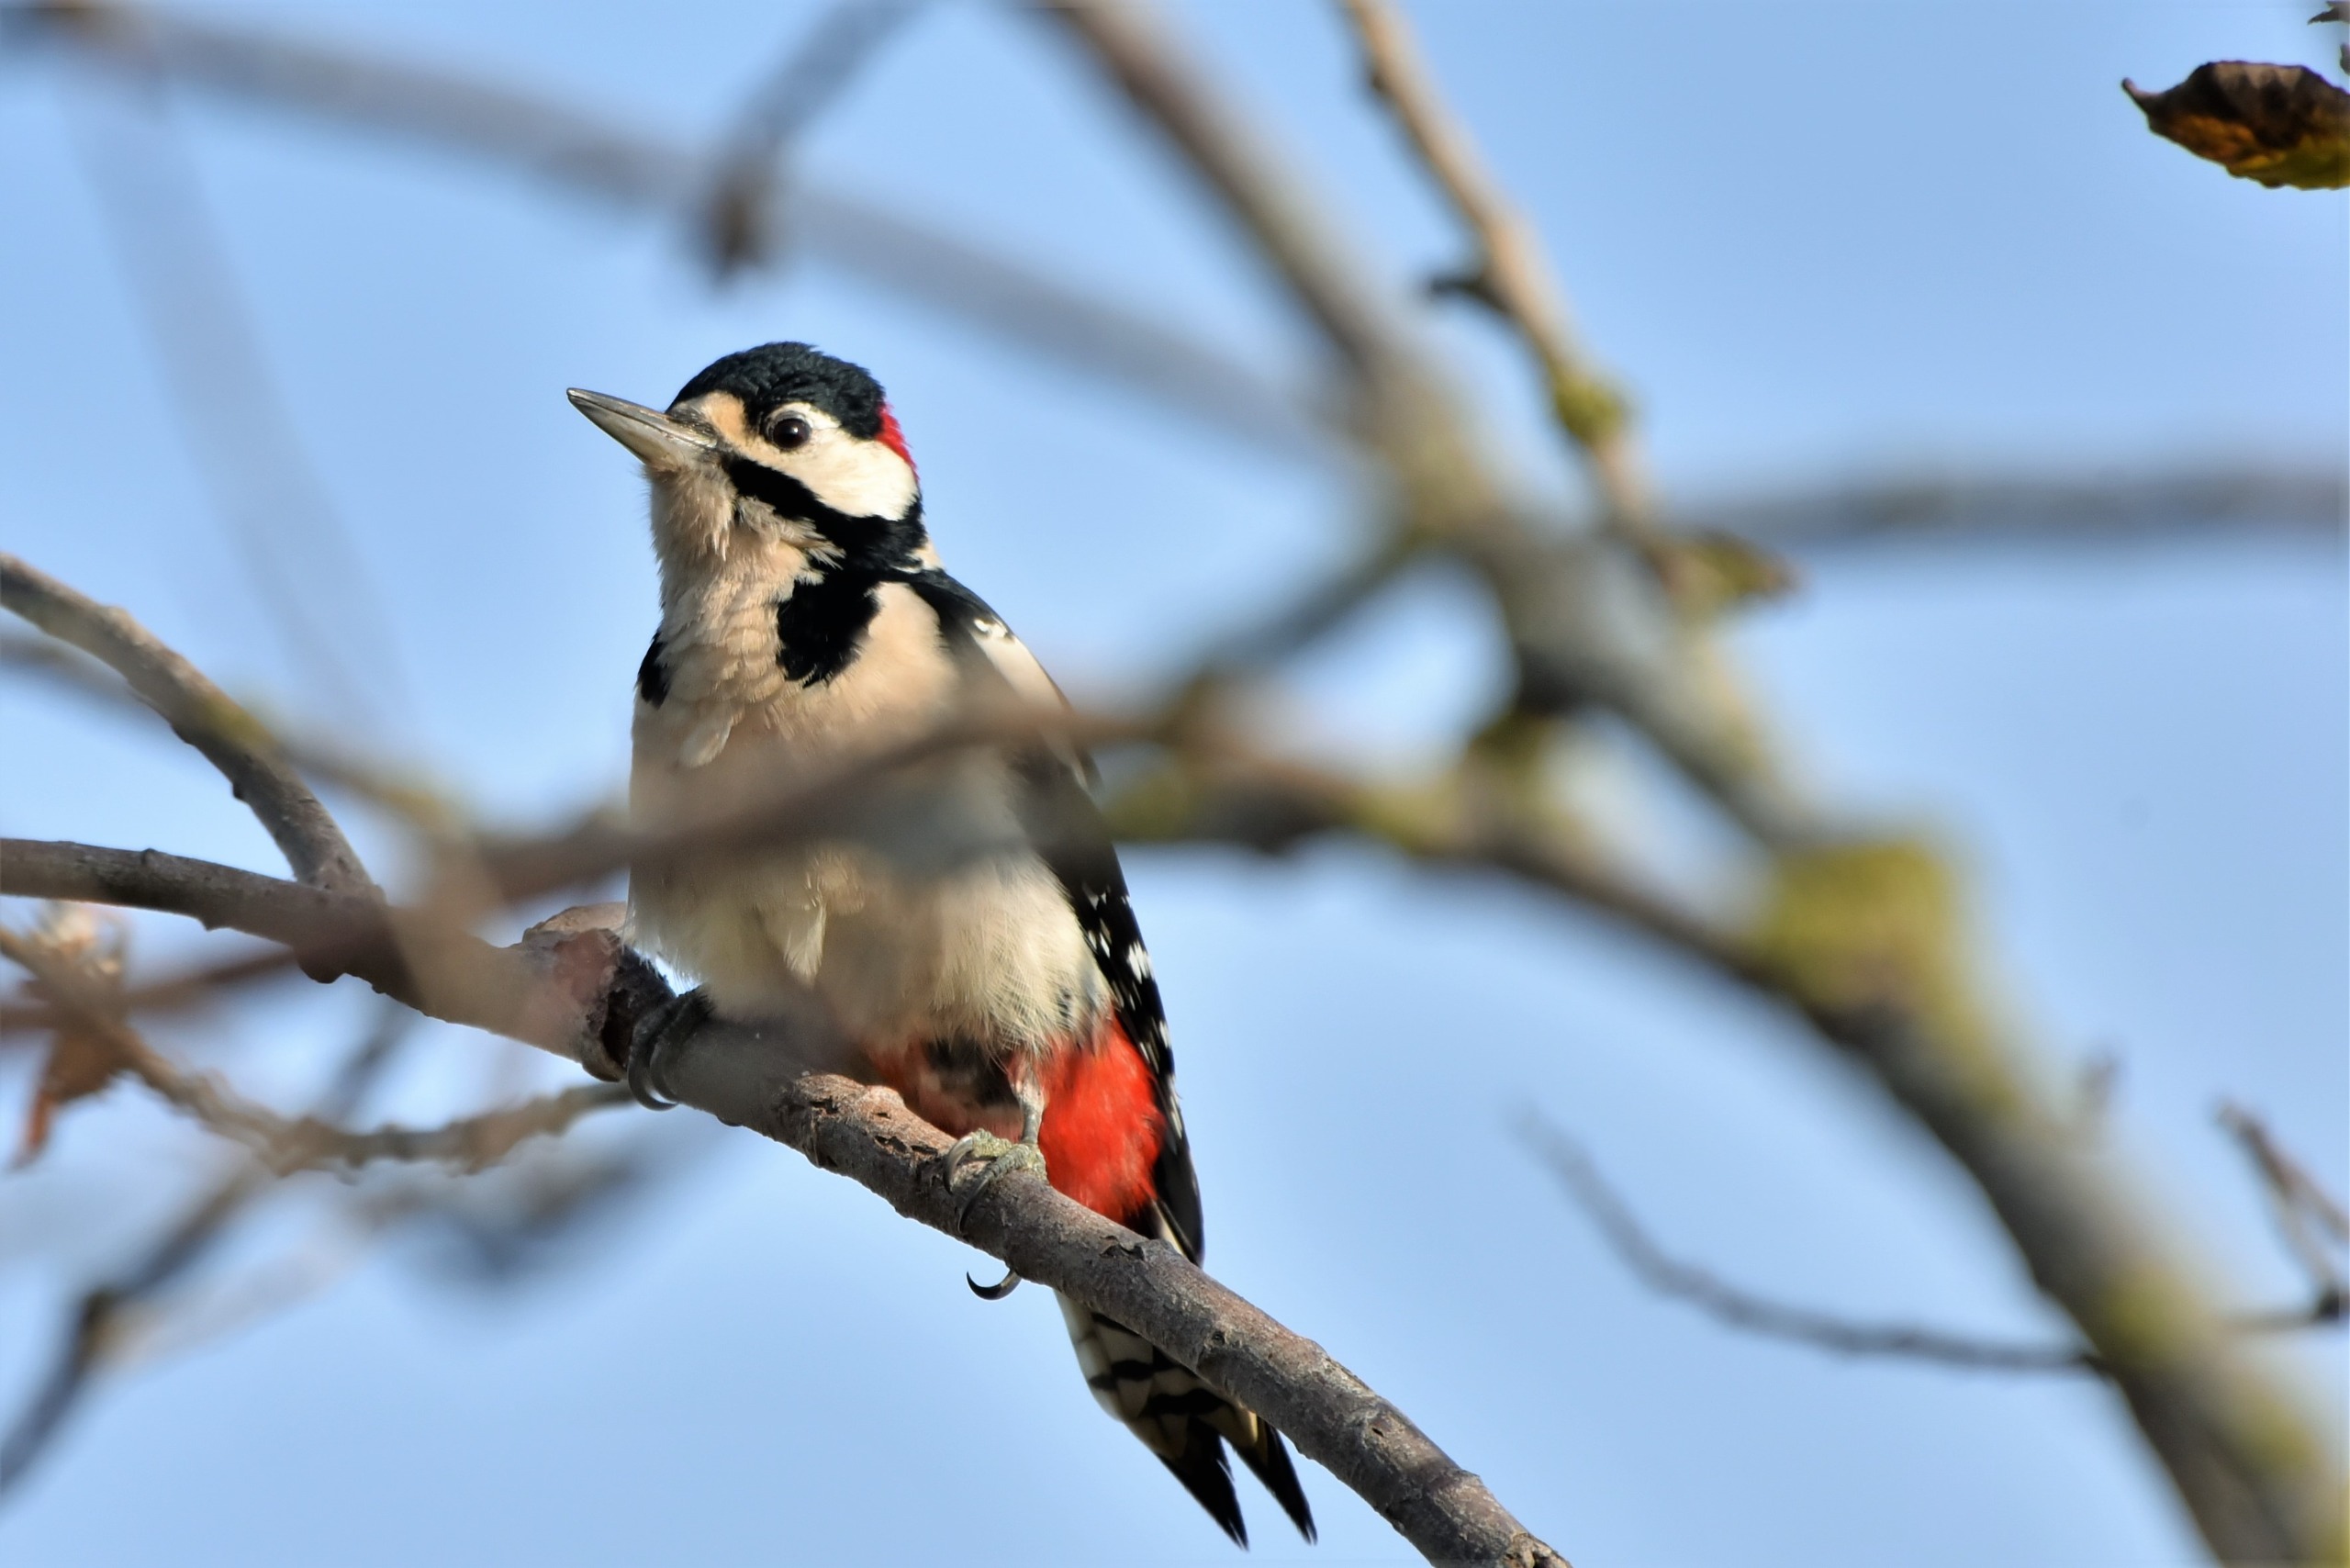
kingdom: Animalia
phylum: Chordata
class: Aves
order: Piciformes
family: Picidae
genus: Dendrocopos
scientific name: Dendrocopos major
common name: Stor flagspætte
